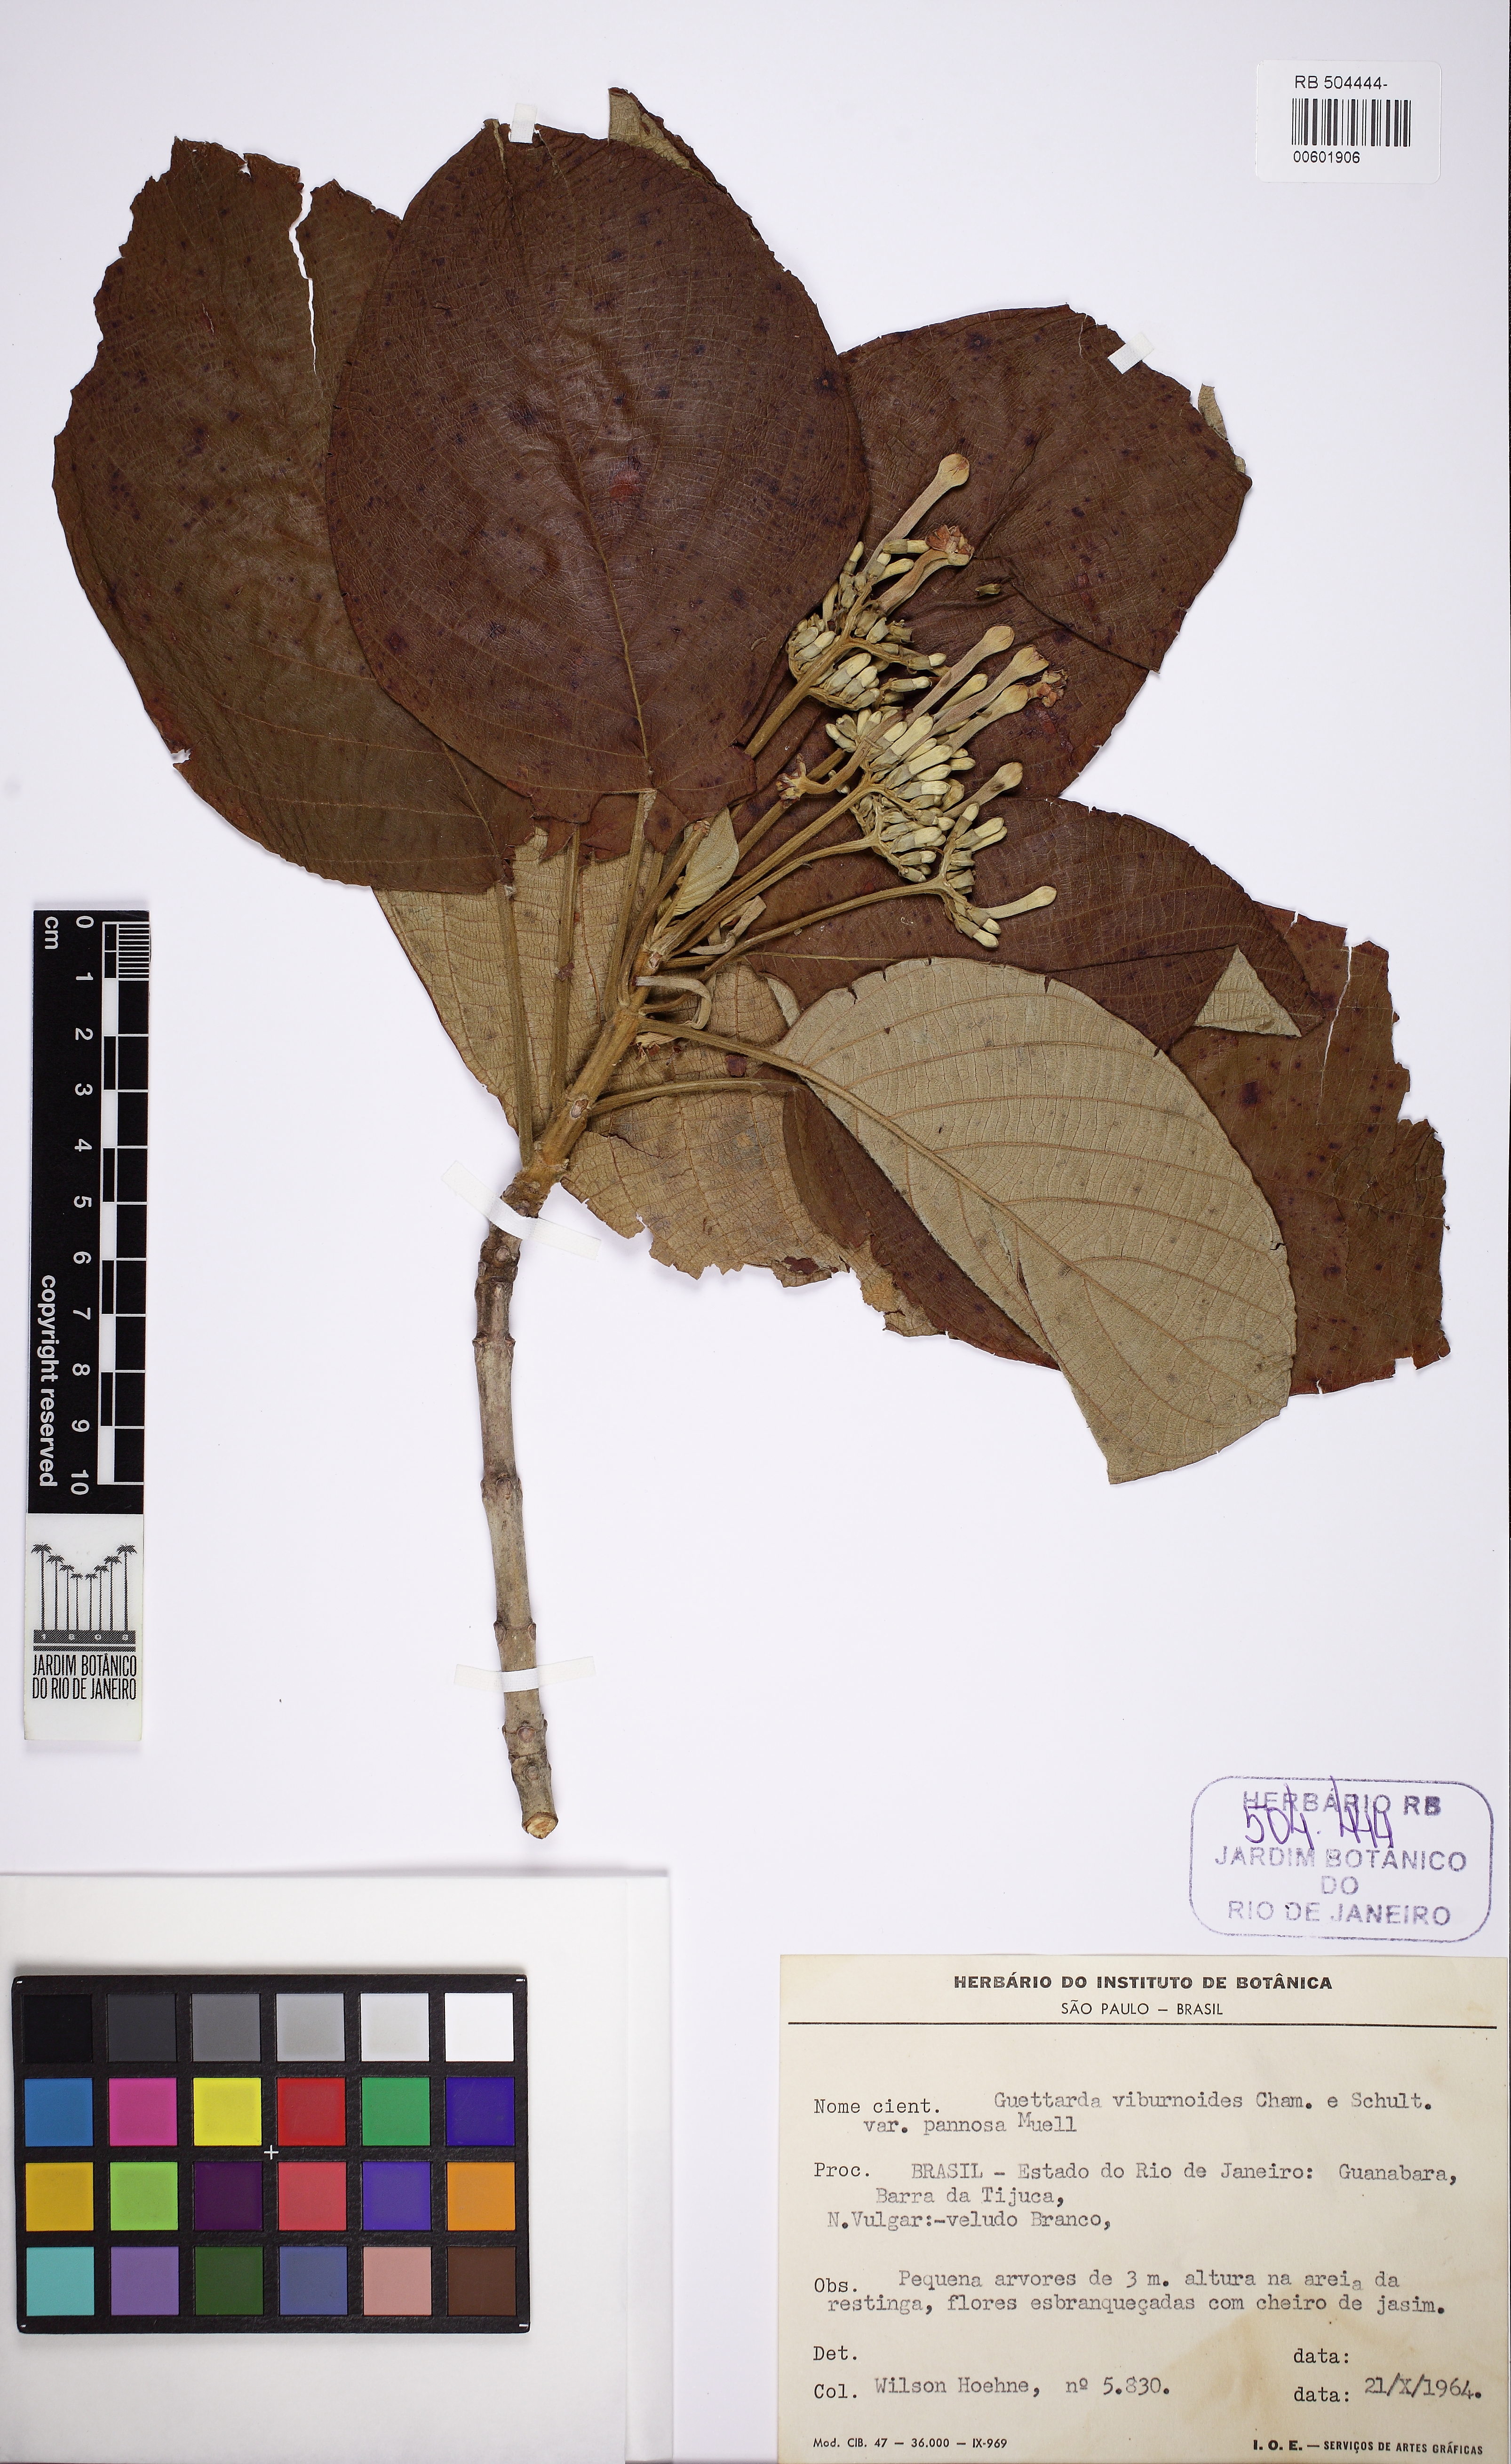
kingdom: Plantae
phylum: Tracheophyta
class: Magnoliopsida
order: Gentianales
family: Rubiaceae
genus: Guettarda
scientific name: Guettarda viburnoides
